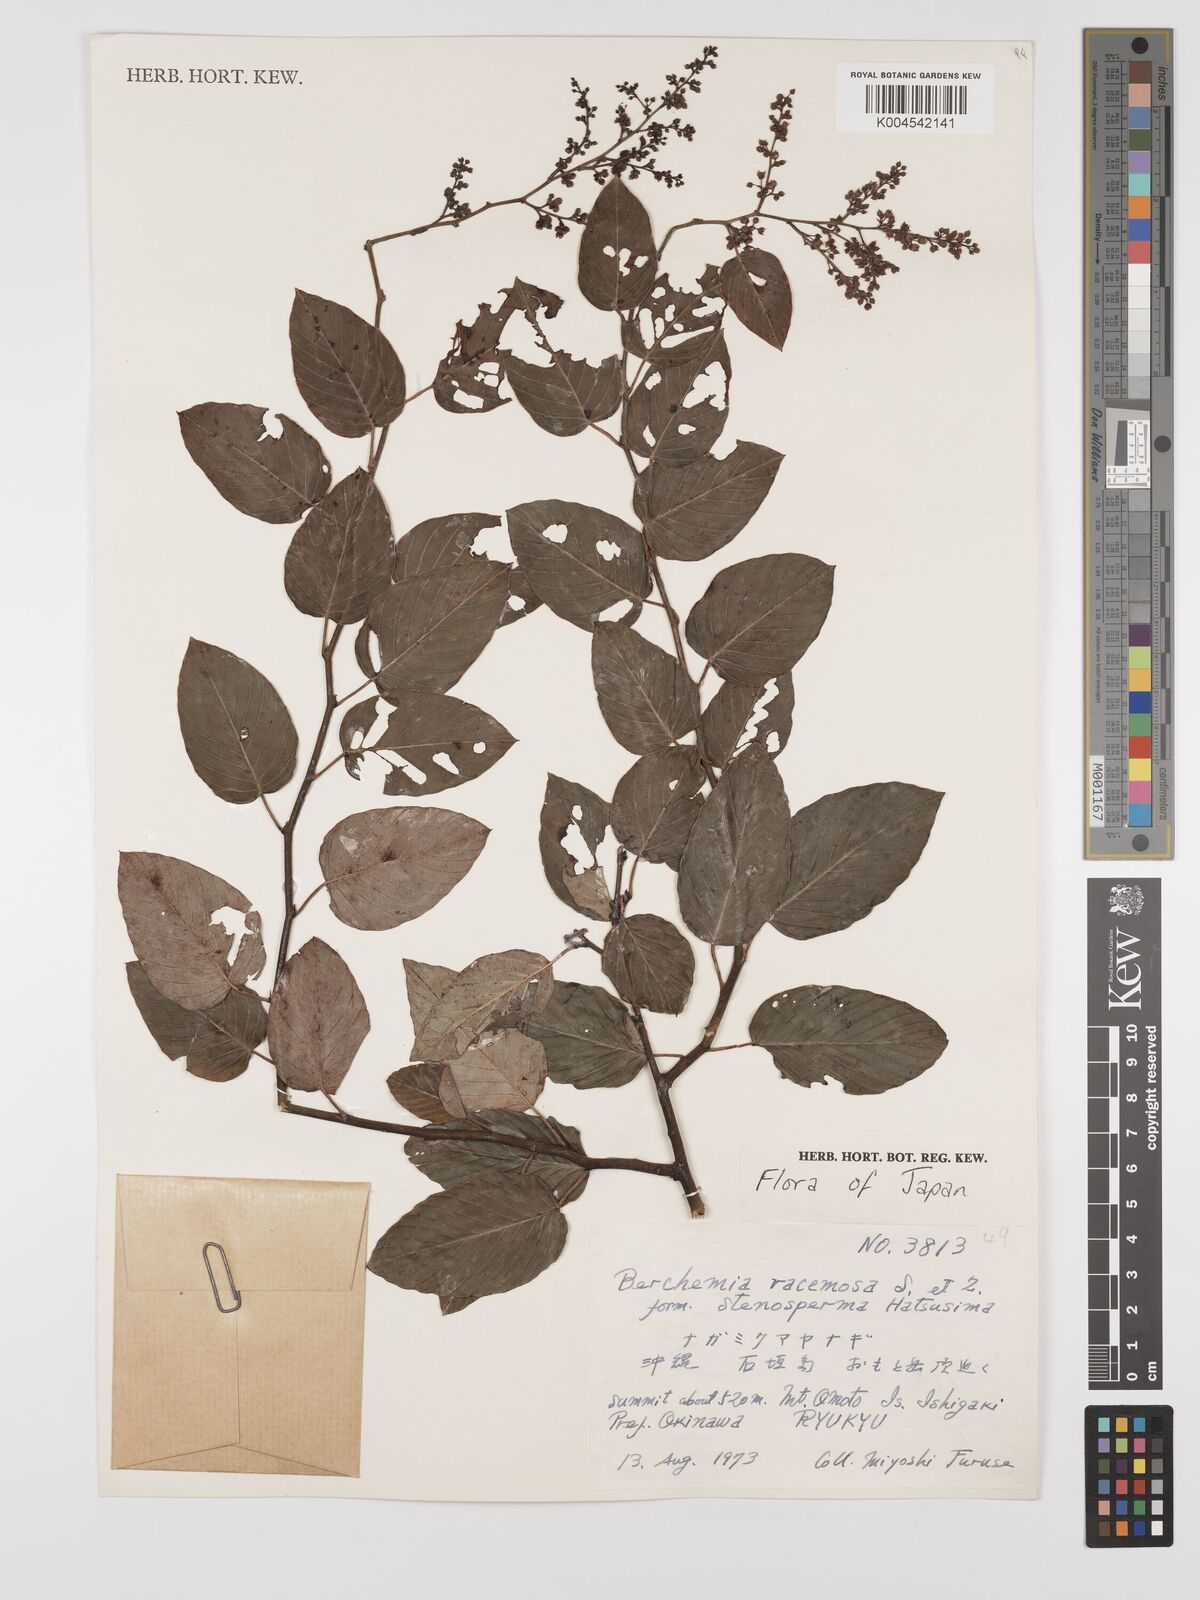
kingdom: Plantae
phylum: Tracheophyta
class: Magnoliopsida
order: Rosales
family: Rhamnaceae
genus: Berchemia
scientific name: Berchemia floribunda
